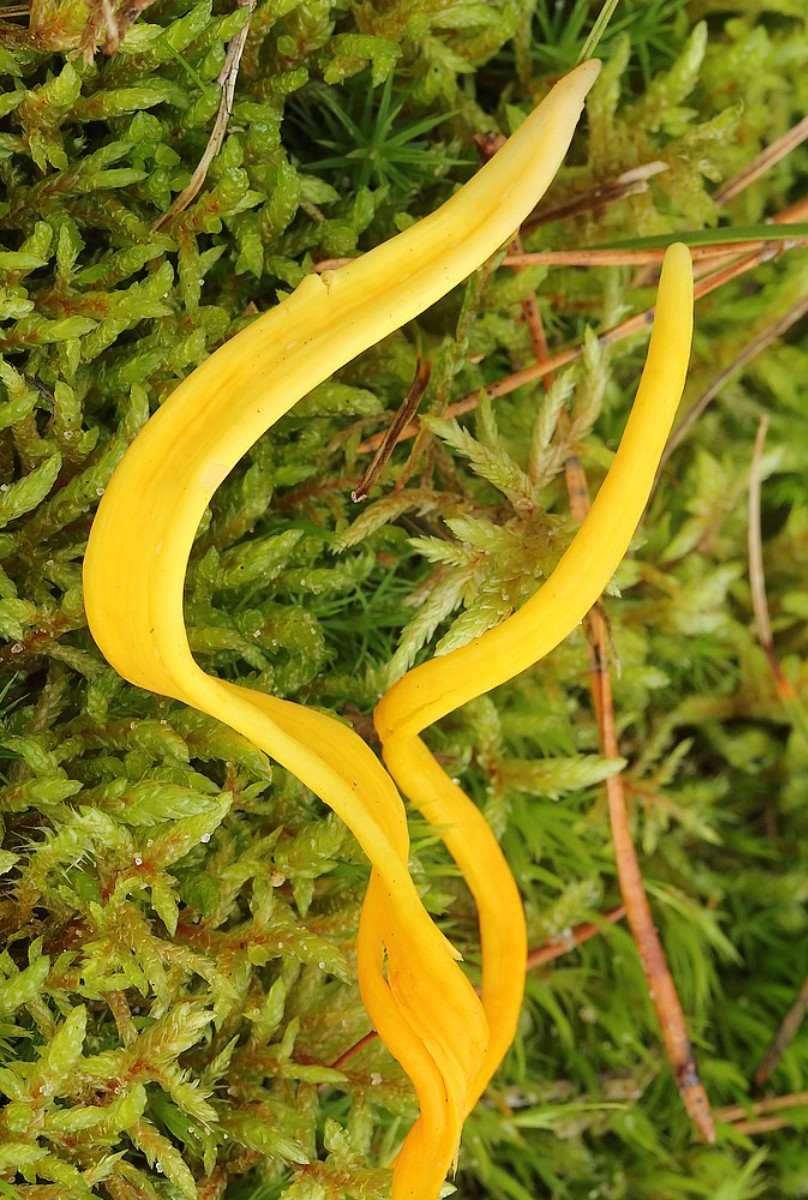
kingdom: Fungi
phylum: Basidiomycota
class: Agaricomycetes
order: Agaricales
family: Clavariaceae
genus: Clavulinopsis
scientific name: Clavulinopsis laeticolor
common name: flamme-køllesvamp
